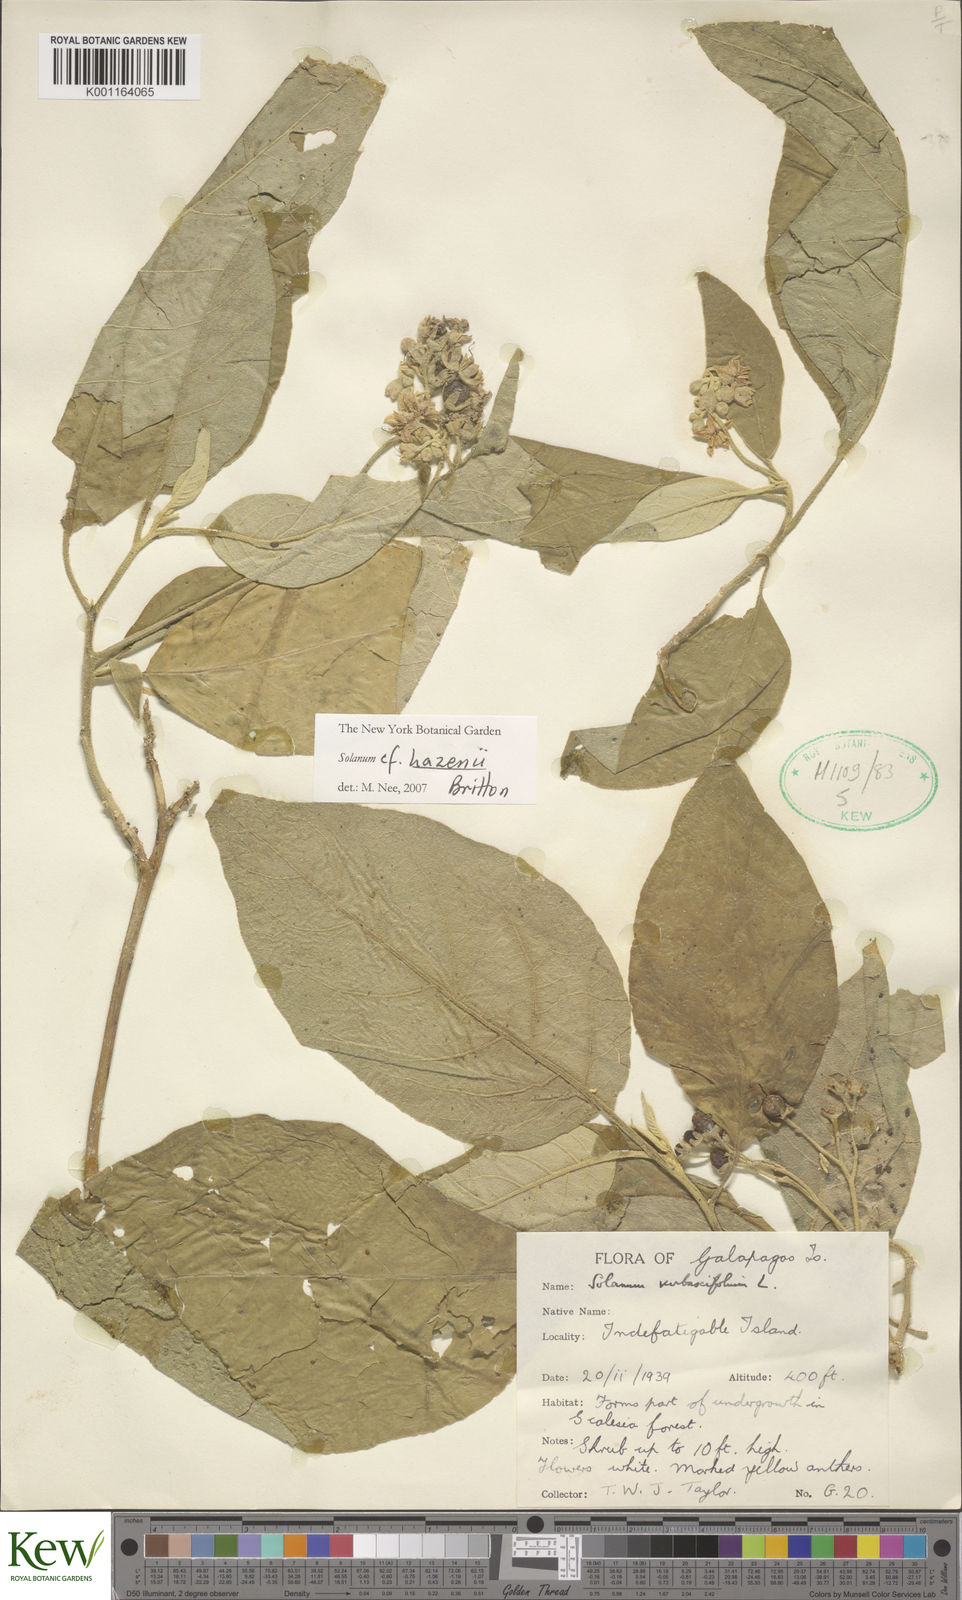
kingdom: Plantae
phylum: Tracheophyta
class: Magnoliopsida
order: Solanales
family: Solanaceae
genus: Solanum
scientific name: Solanum hazenii
